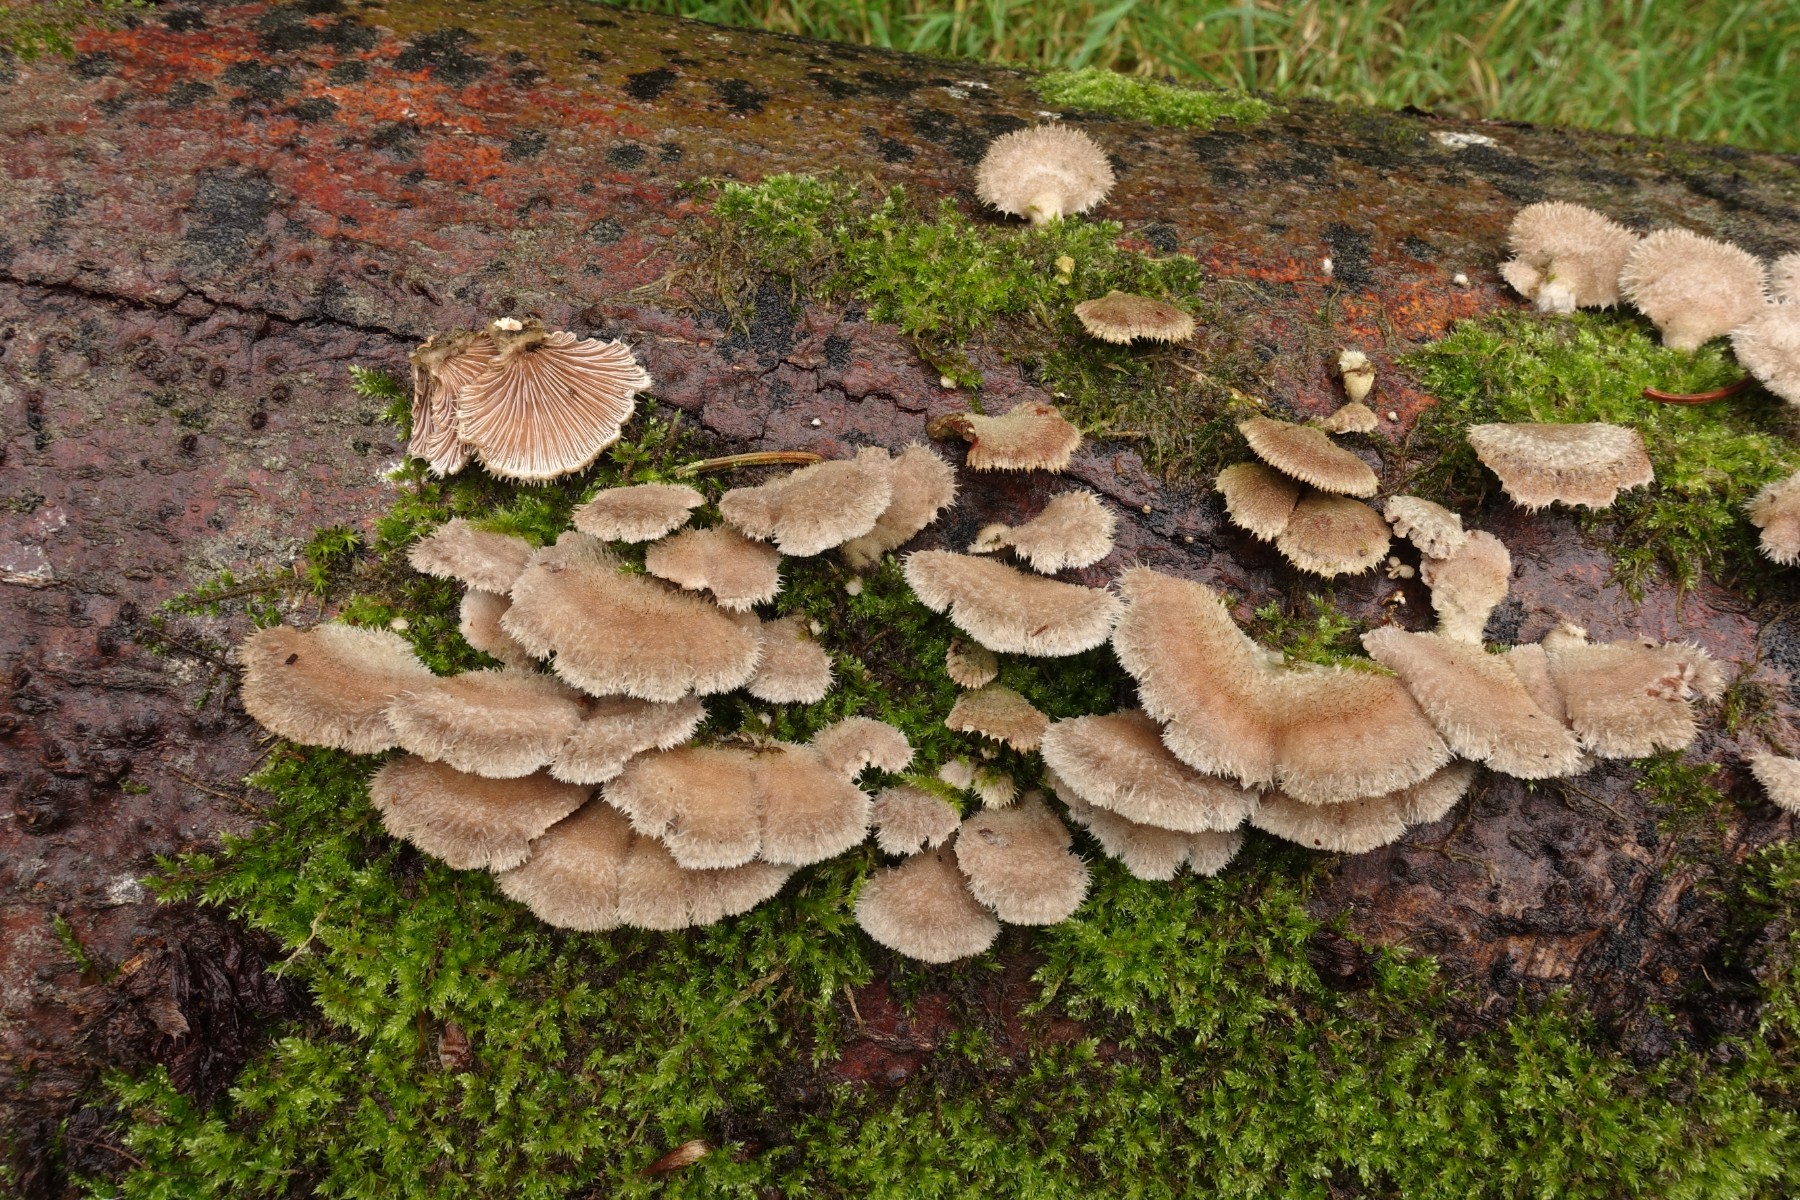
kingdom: Fungi
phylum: Basidiomycota
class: Agaricomycetes
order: Agaricales
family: Schizophyllaceae
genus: Schizophyllum
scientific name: Schizophyllum commune
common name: kløvblad
